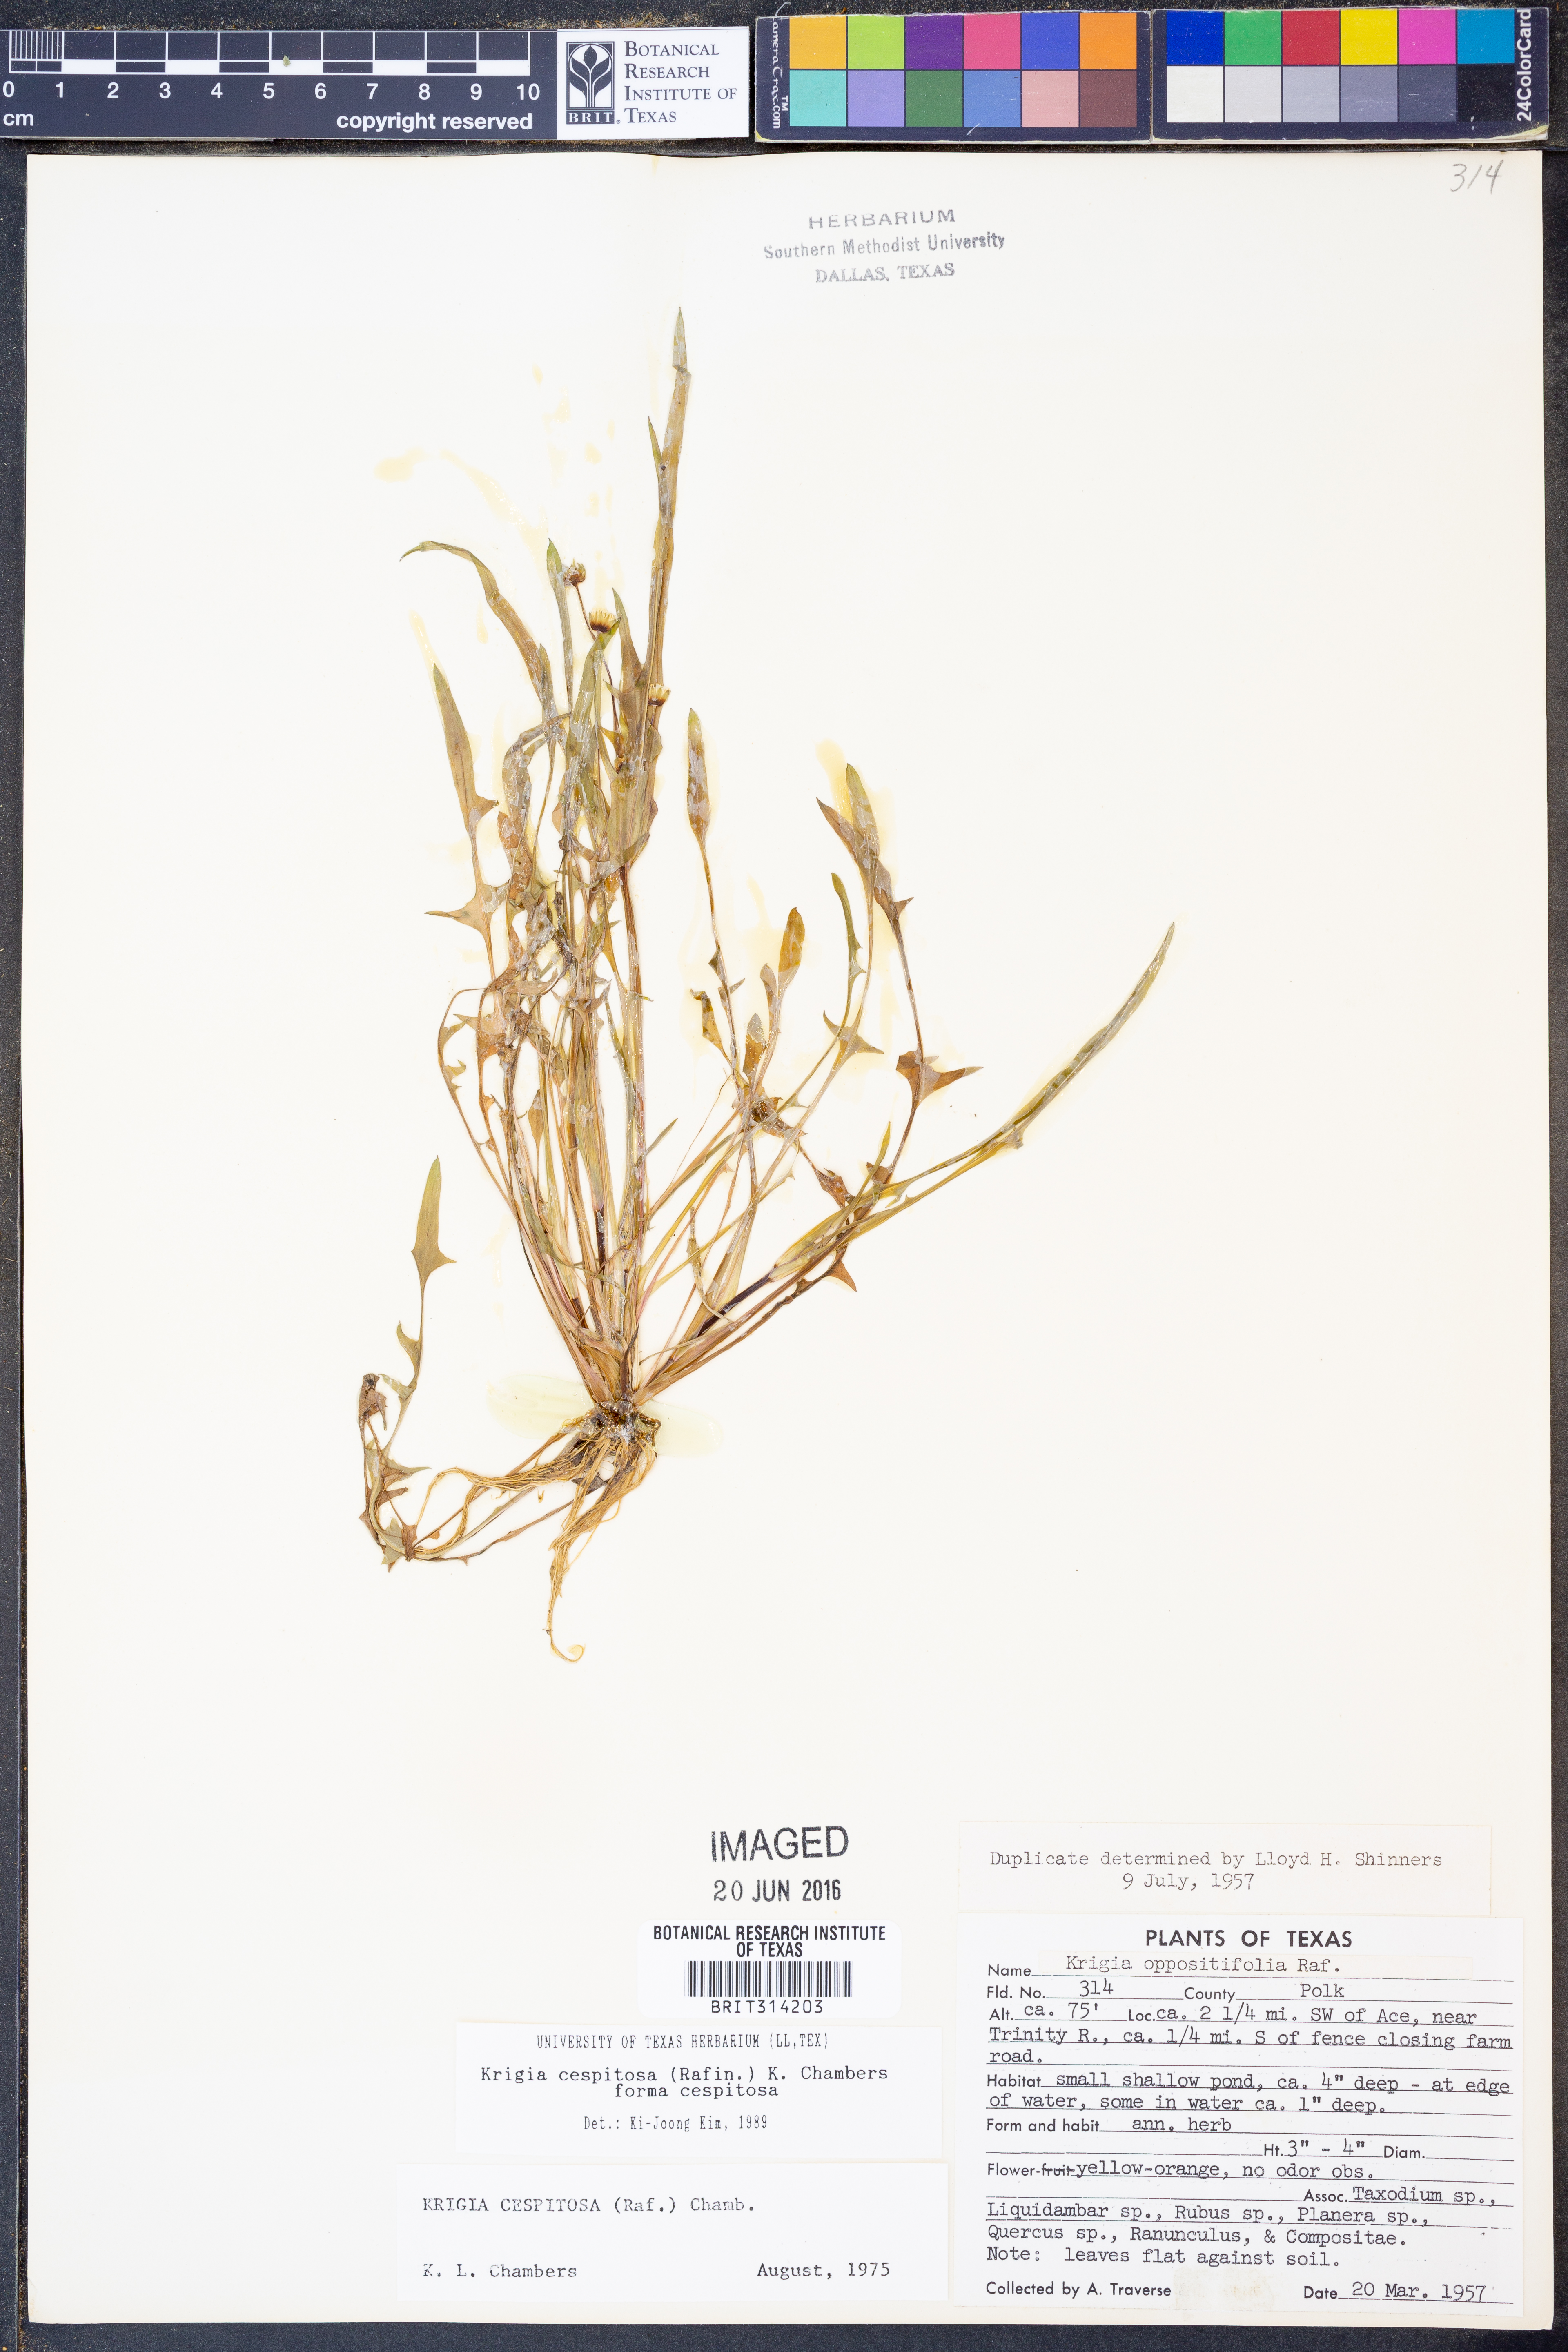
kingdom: Plantae
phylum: Tracheophyta
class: Magnoliopsida
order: Asterales
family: Asteraceae
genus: Krigia
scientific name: Krigia cespitosa
